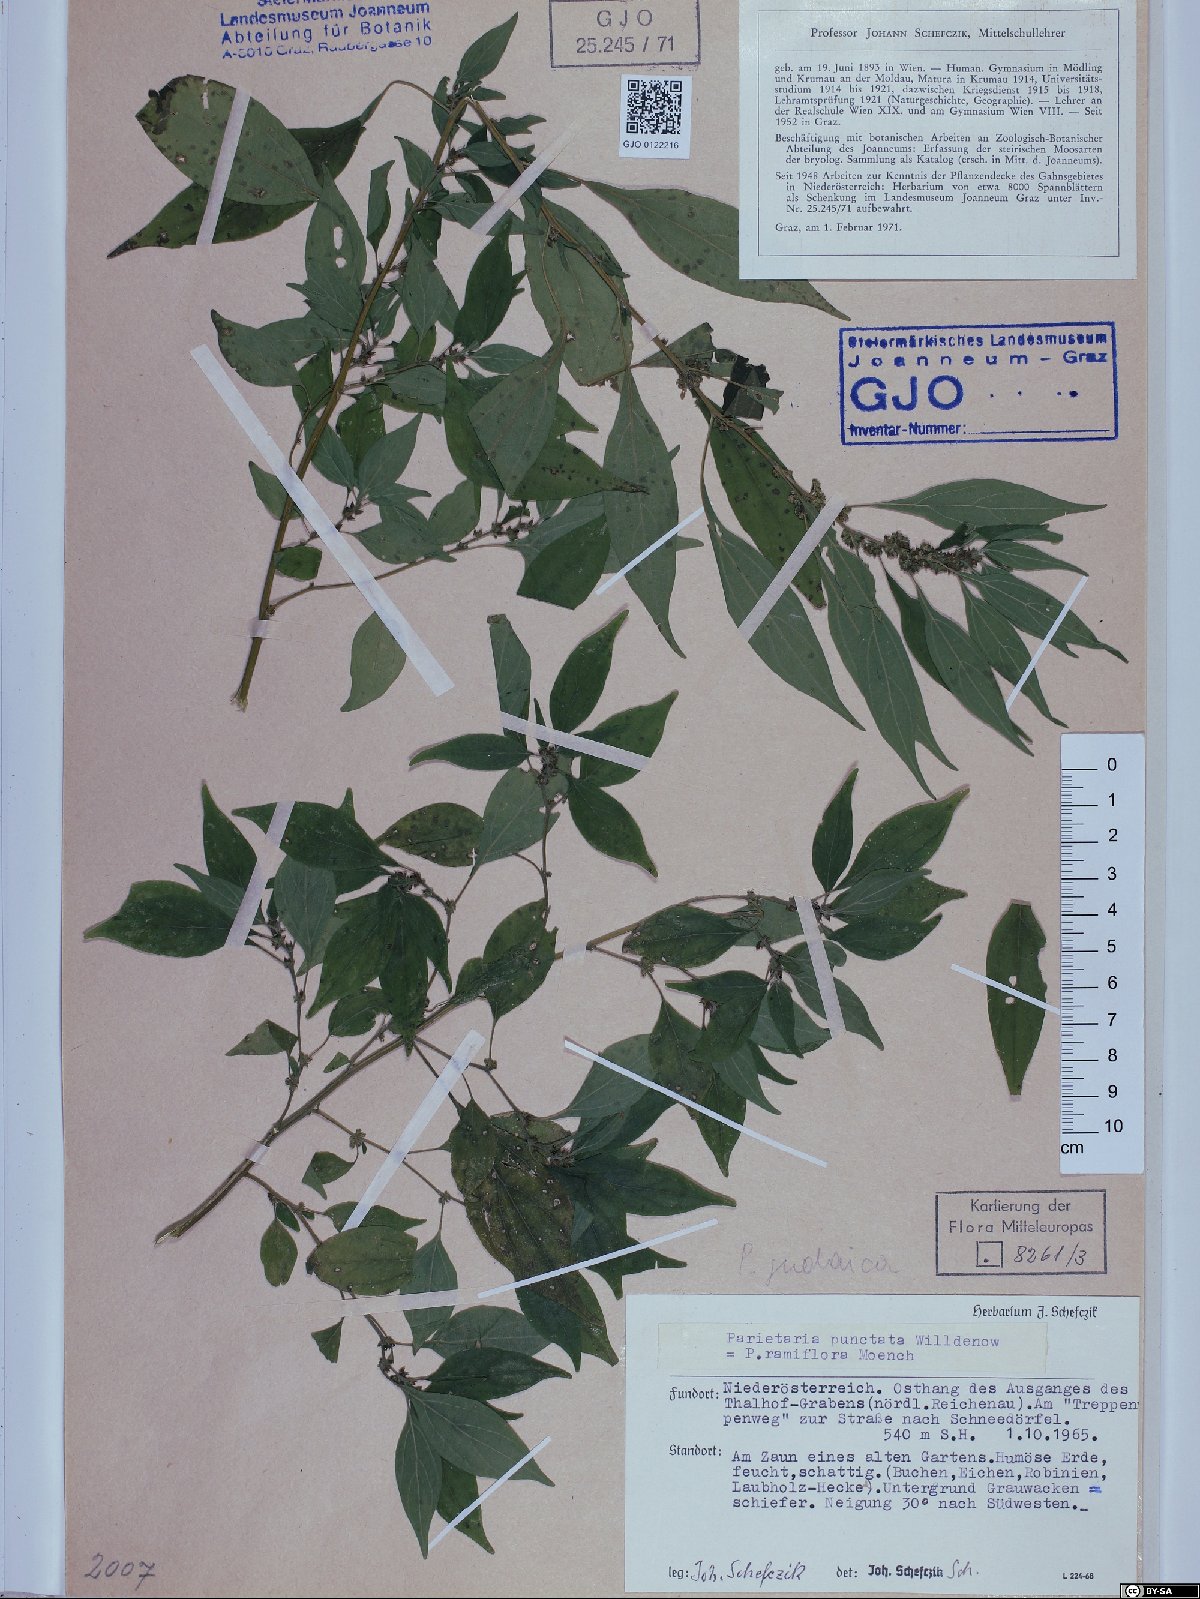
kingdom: Plantae
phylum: Tracheophyta
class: Magnoliopsida
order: Rosales
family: Urticaceae
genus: Parietaria
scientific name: Parietaria judaica
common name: Pellitory-of-the-wall
